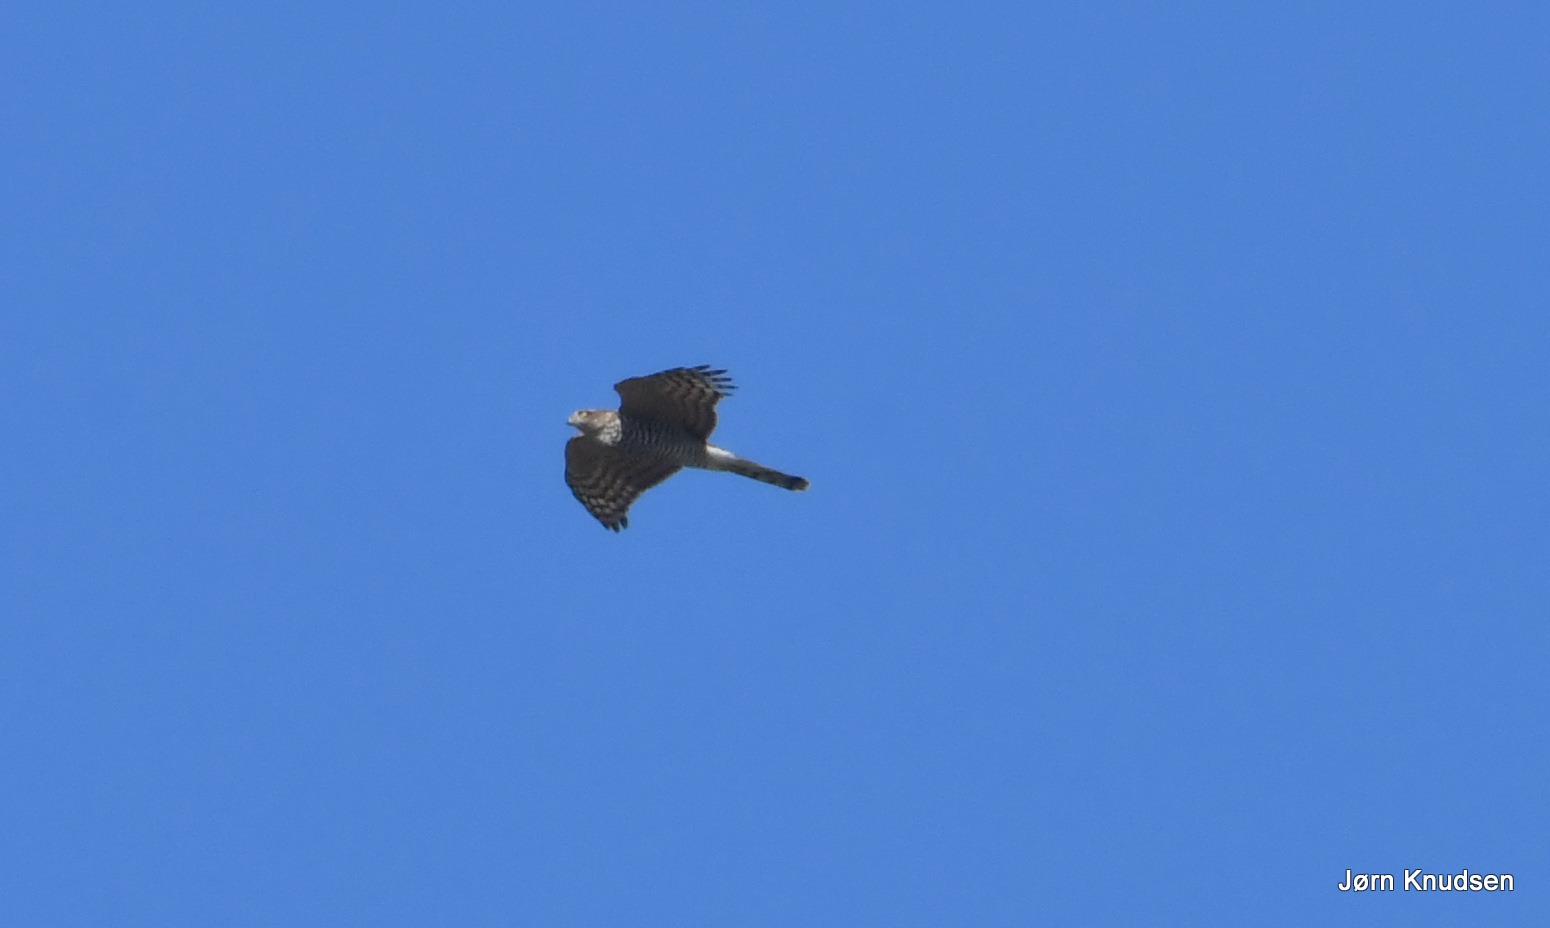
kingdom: Animalia
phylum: Chordata
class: Aves
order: Accipitriformes
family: Accipitridae
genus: Accipiter
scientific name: Accipiter nisus
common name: Spurvehøg
